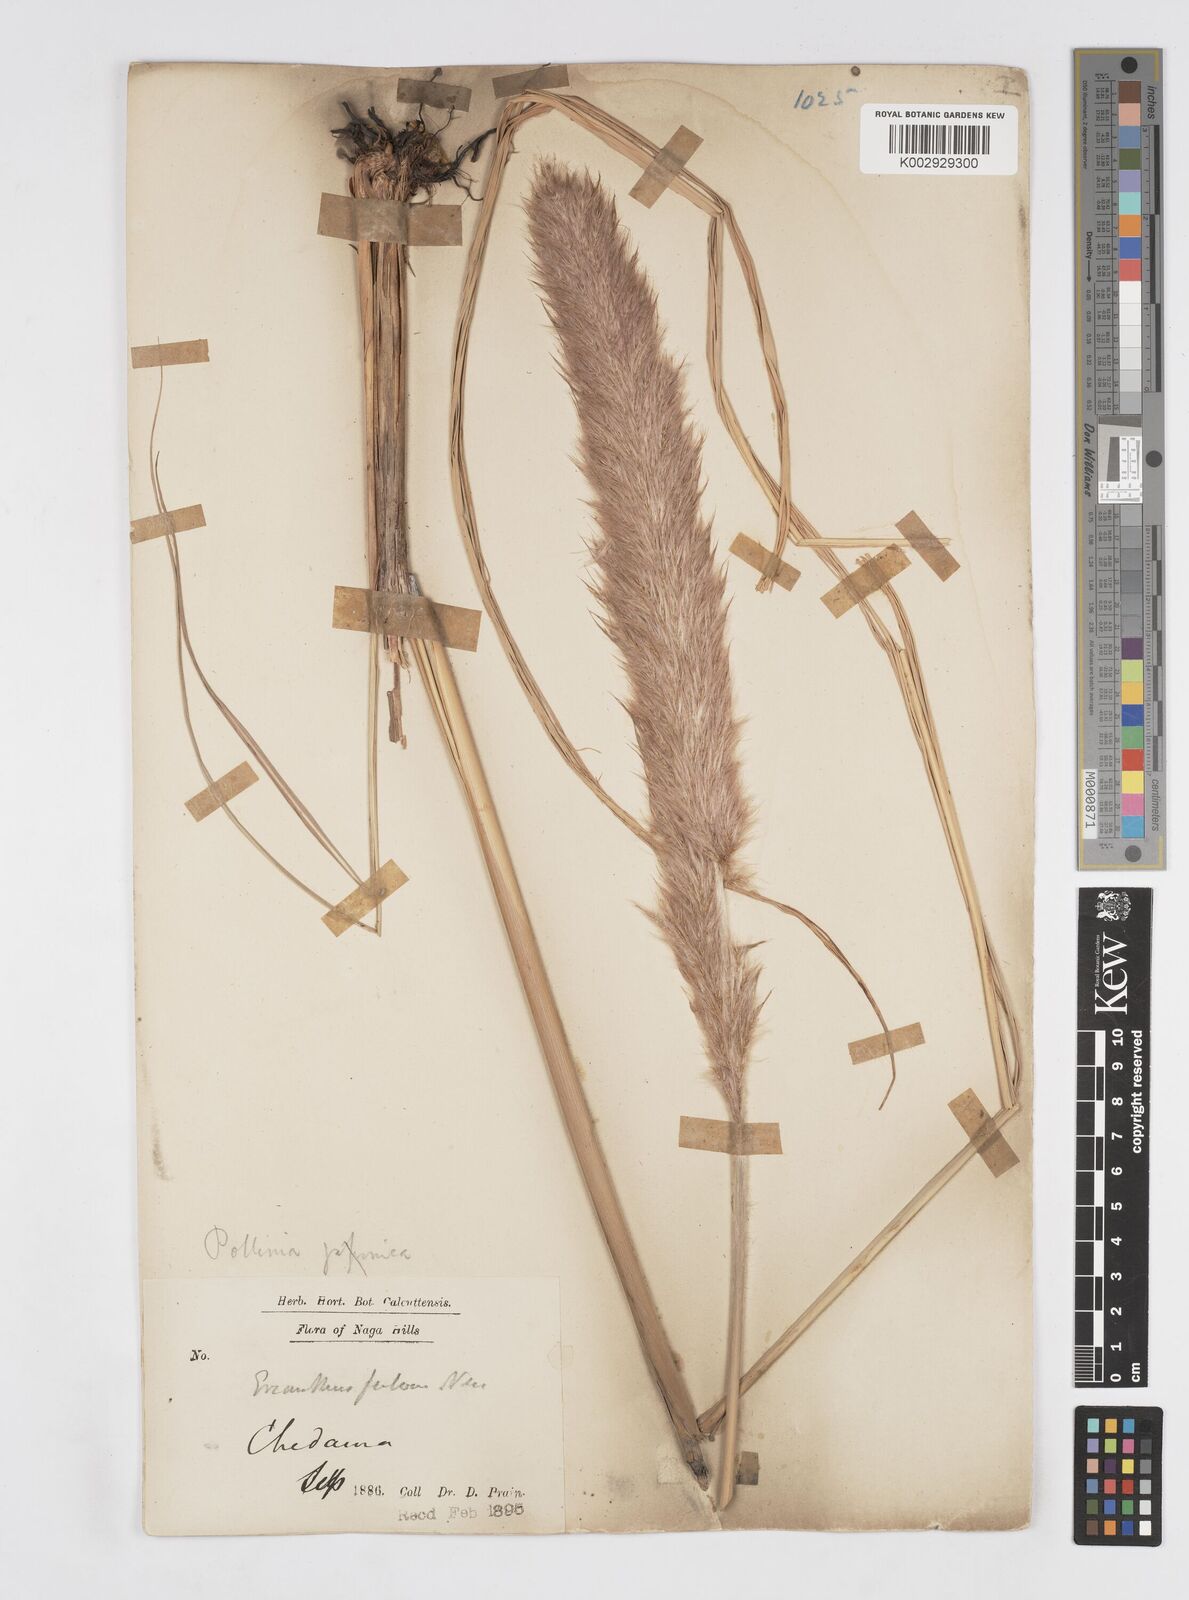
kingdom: Plantae
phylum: Tracheophyta
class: Liliopsida
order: Poales
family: Poaceae
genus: Tripidium
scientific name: Tripidium rufipilum
